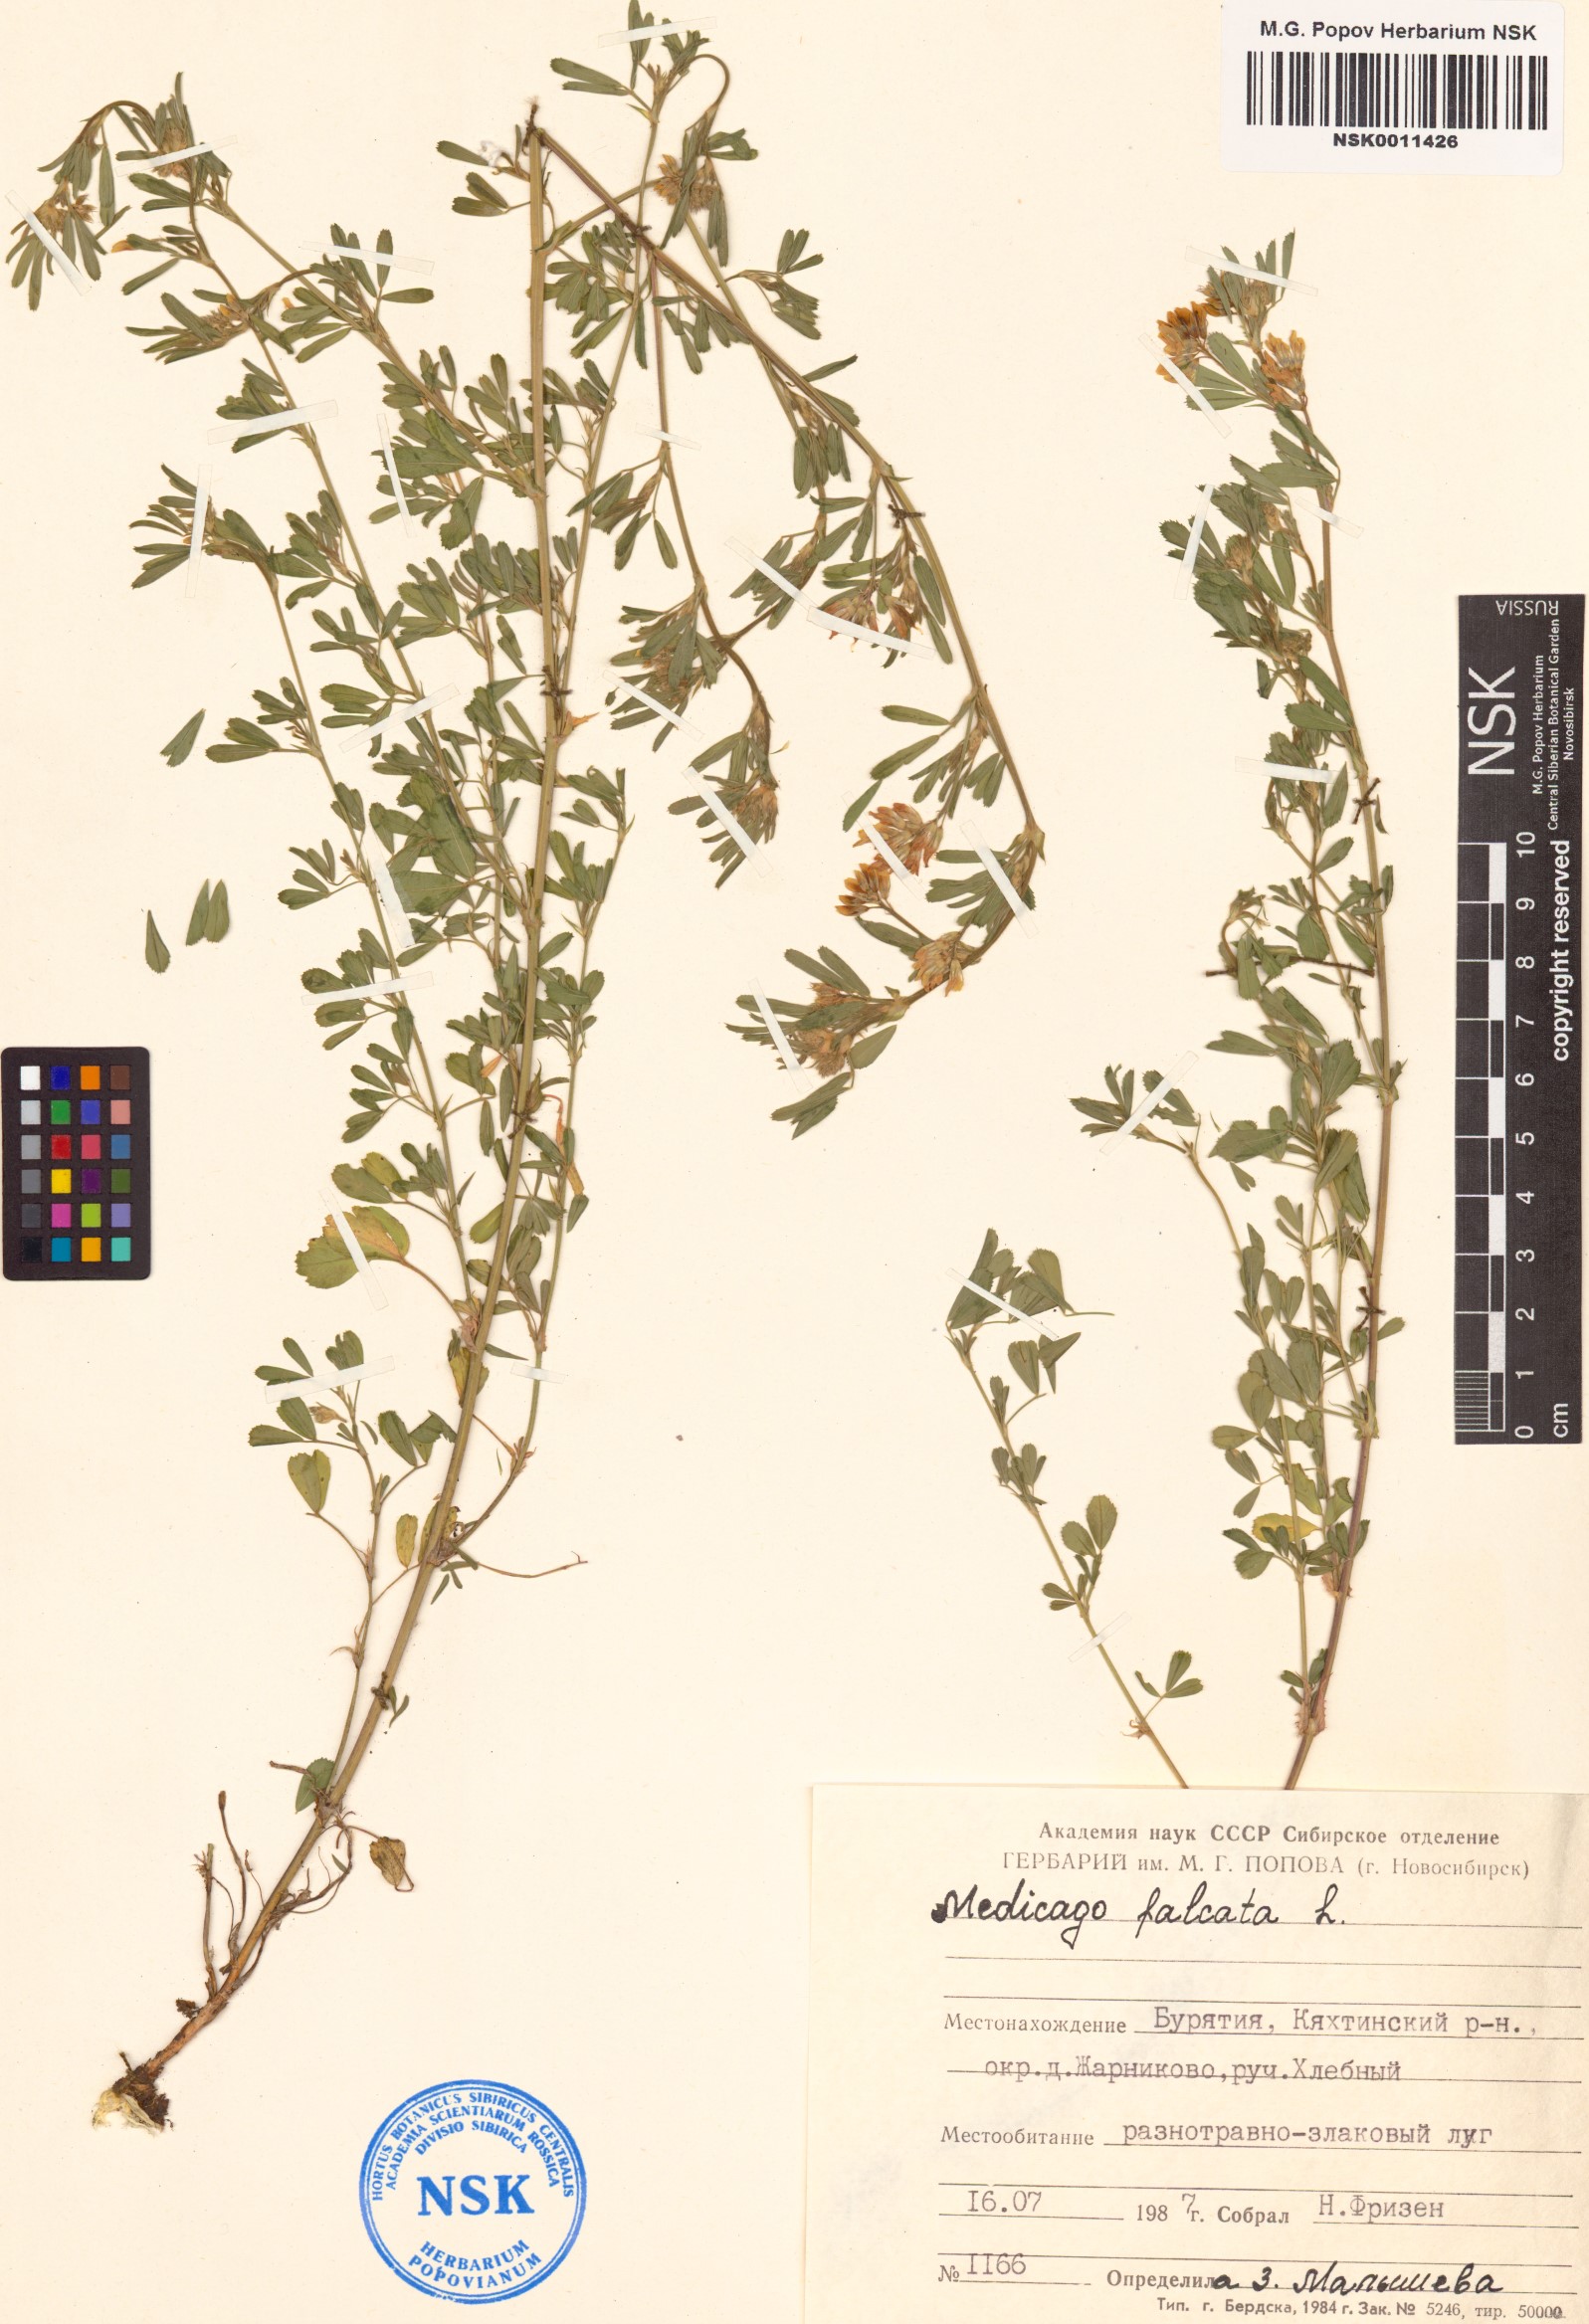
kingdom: Plantae
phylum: Tracheophyta
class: Magnoliopsida
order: Fabales
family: Fabaceae
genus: Medicago
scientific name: Medicago falcata
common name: Sickle medick
